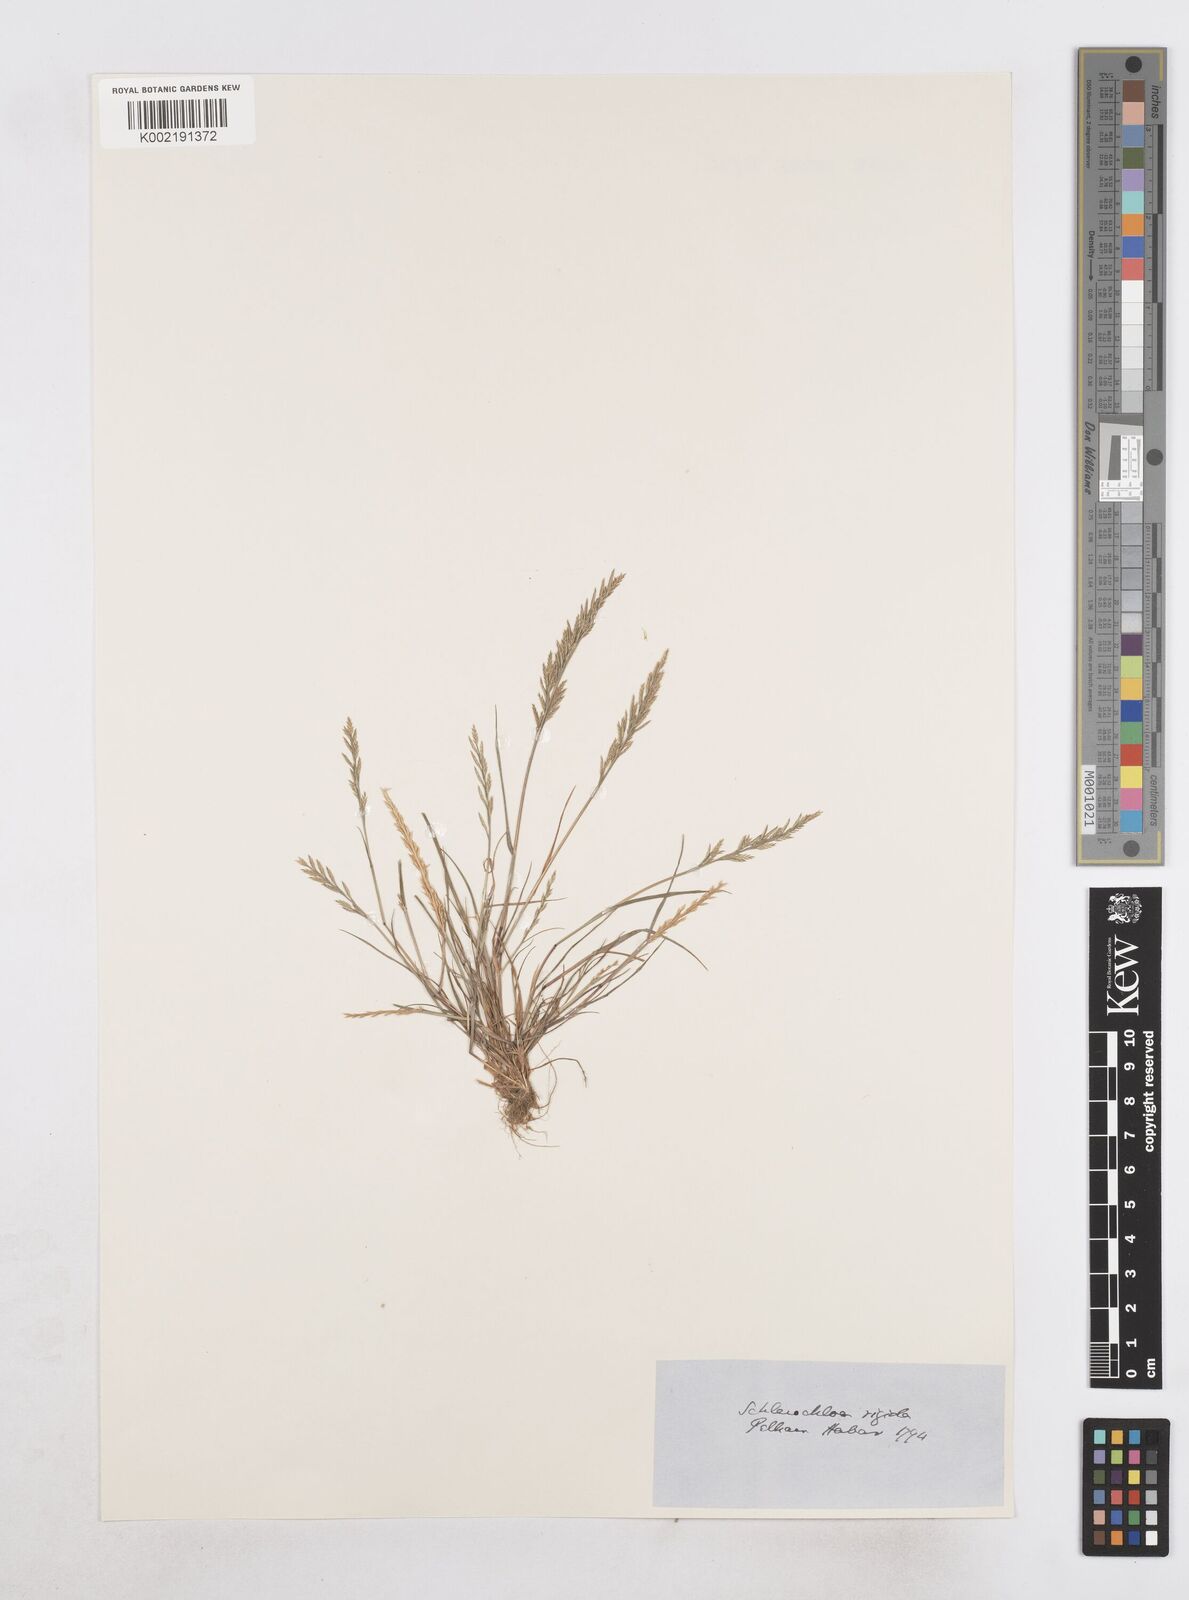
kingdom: Plantae
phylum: Tracheophyta
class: Liliopsida
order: Poales
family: Poaceae
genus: Catapodium
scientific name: Catapodium rigidum
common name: Fern-grass
